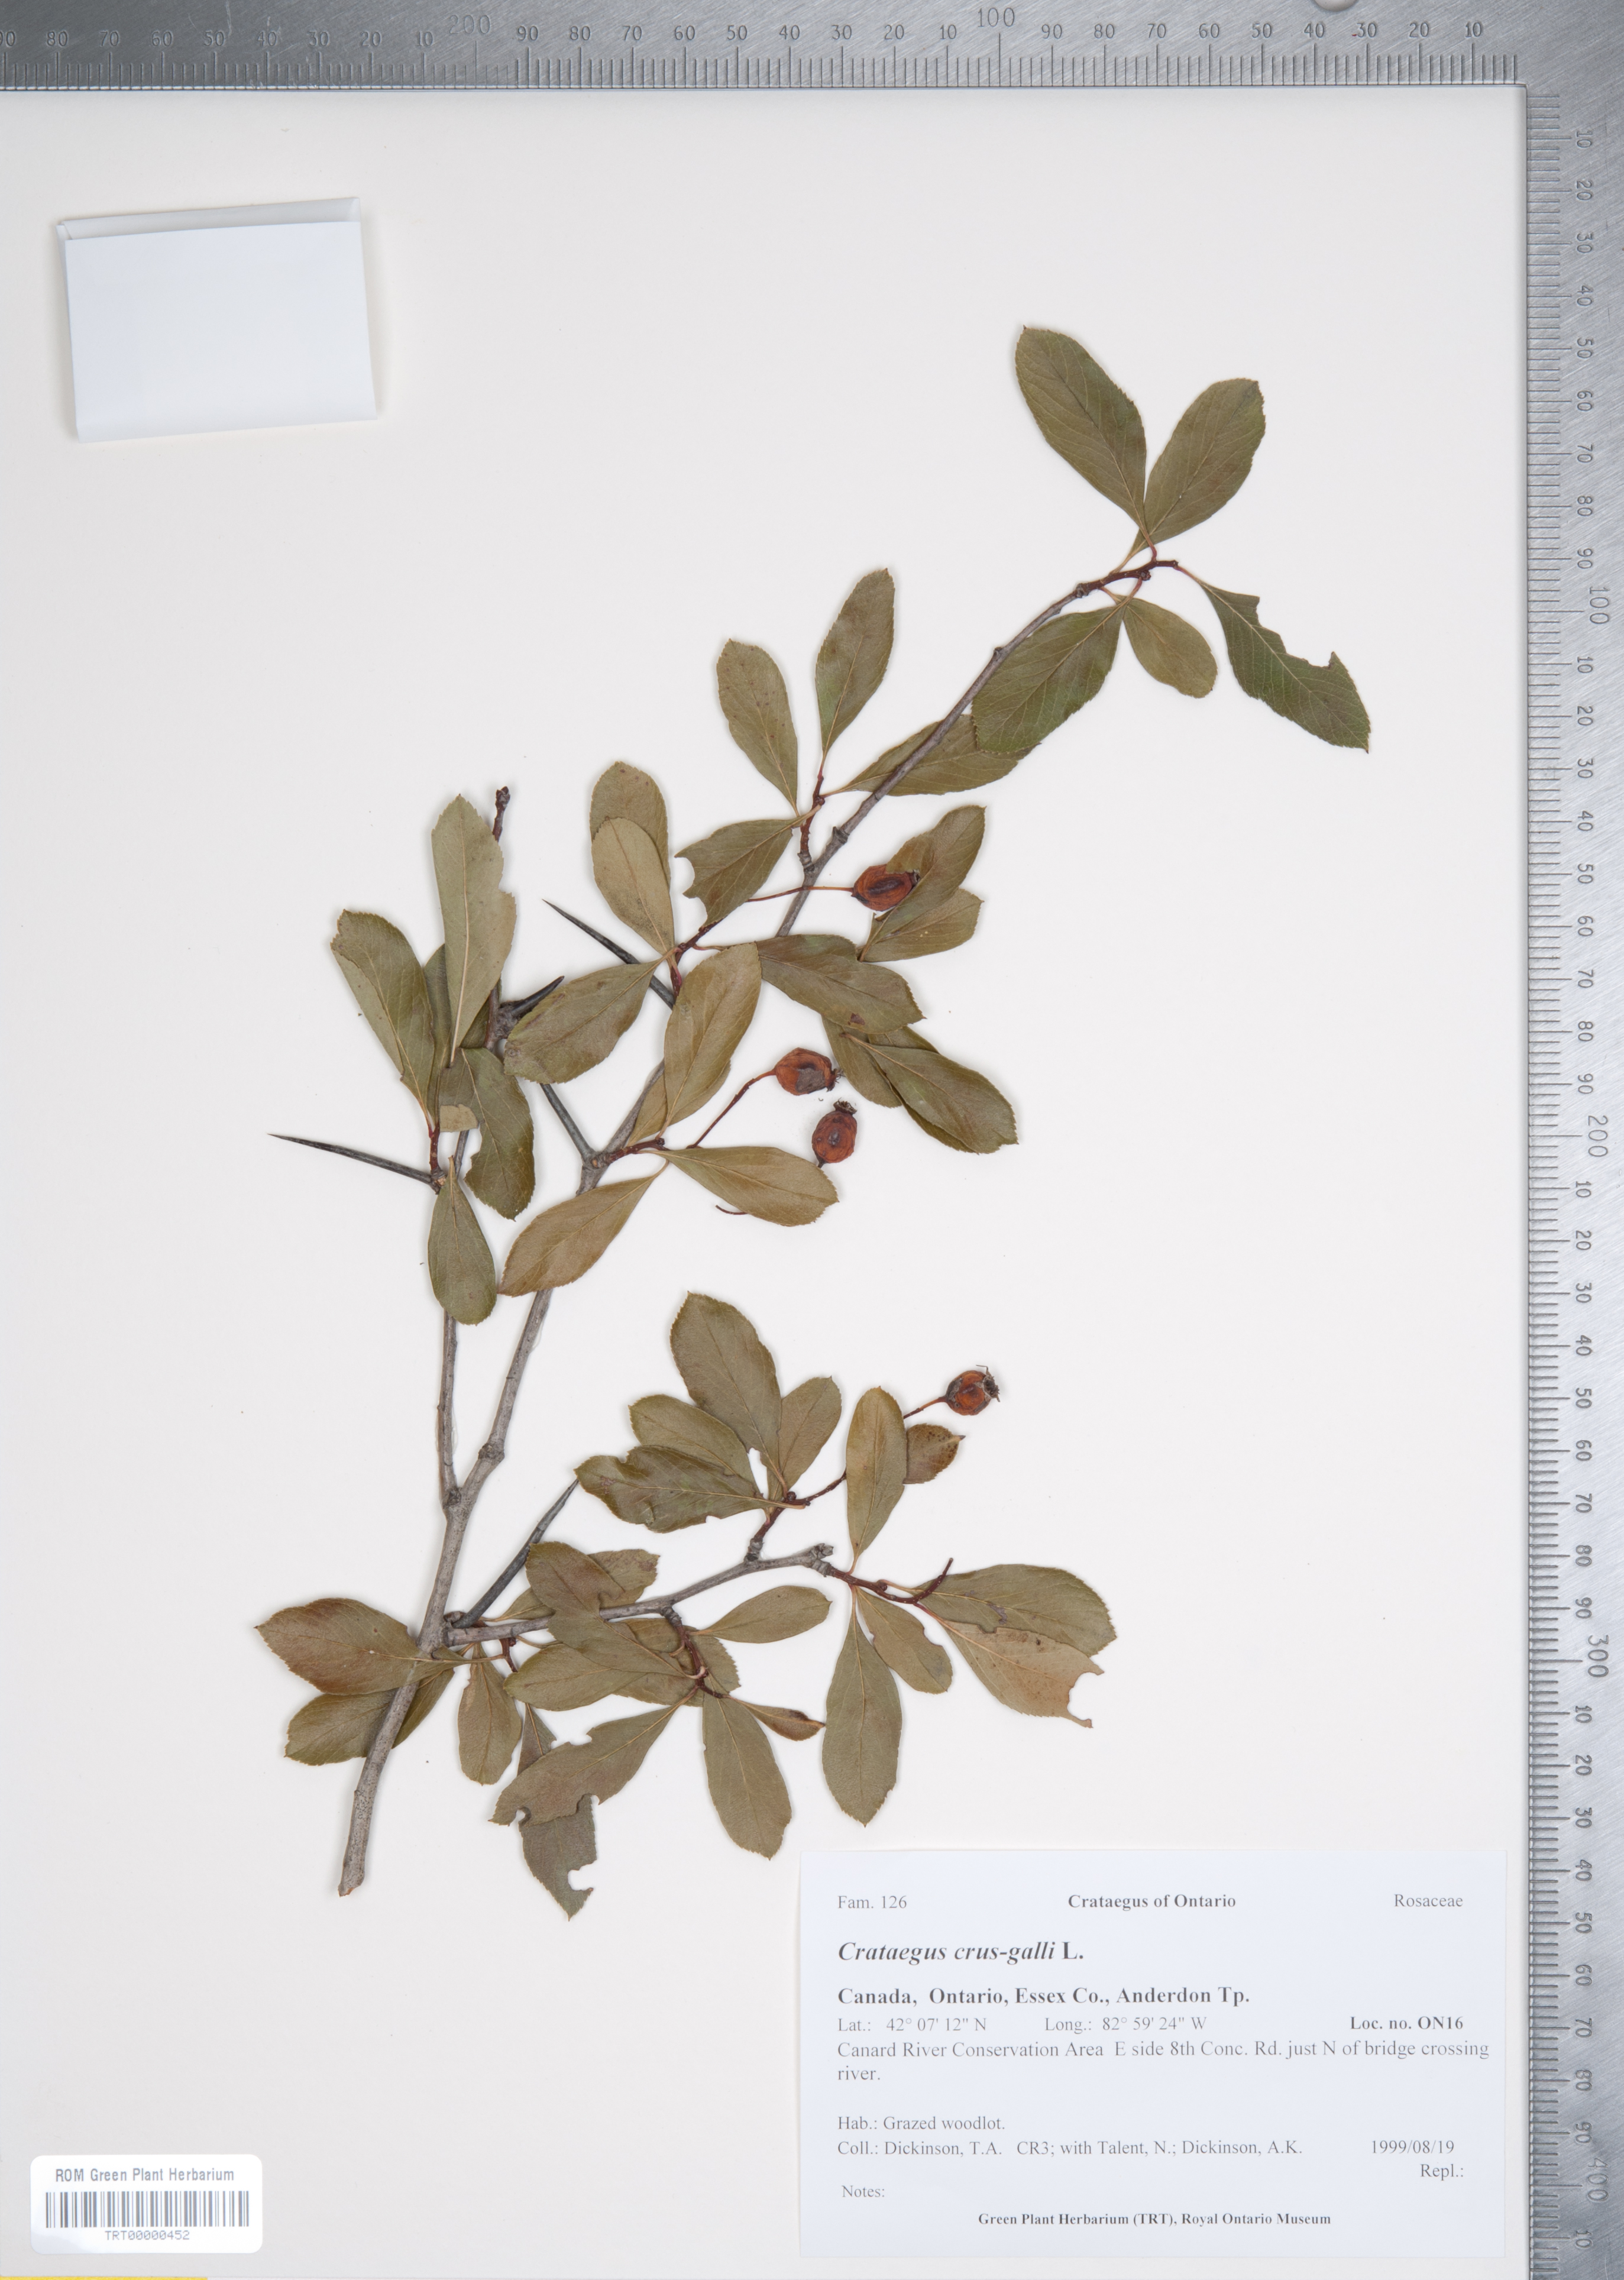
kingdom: Plantae
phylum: Tracheophyta
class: Magnoliopsida
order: Rosales
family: Rosaceae
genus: Crataegus
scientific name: Crataegus crus-galli
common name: Cockspurthorn
